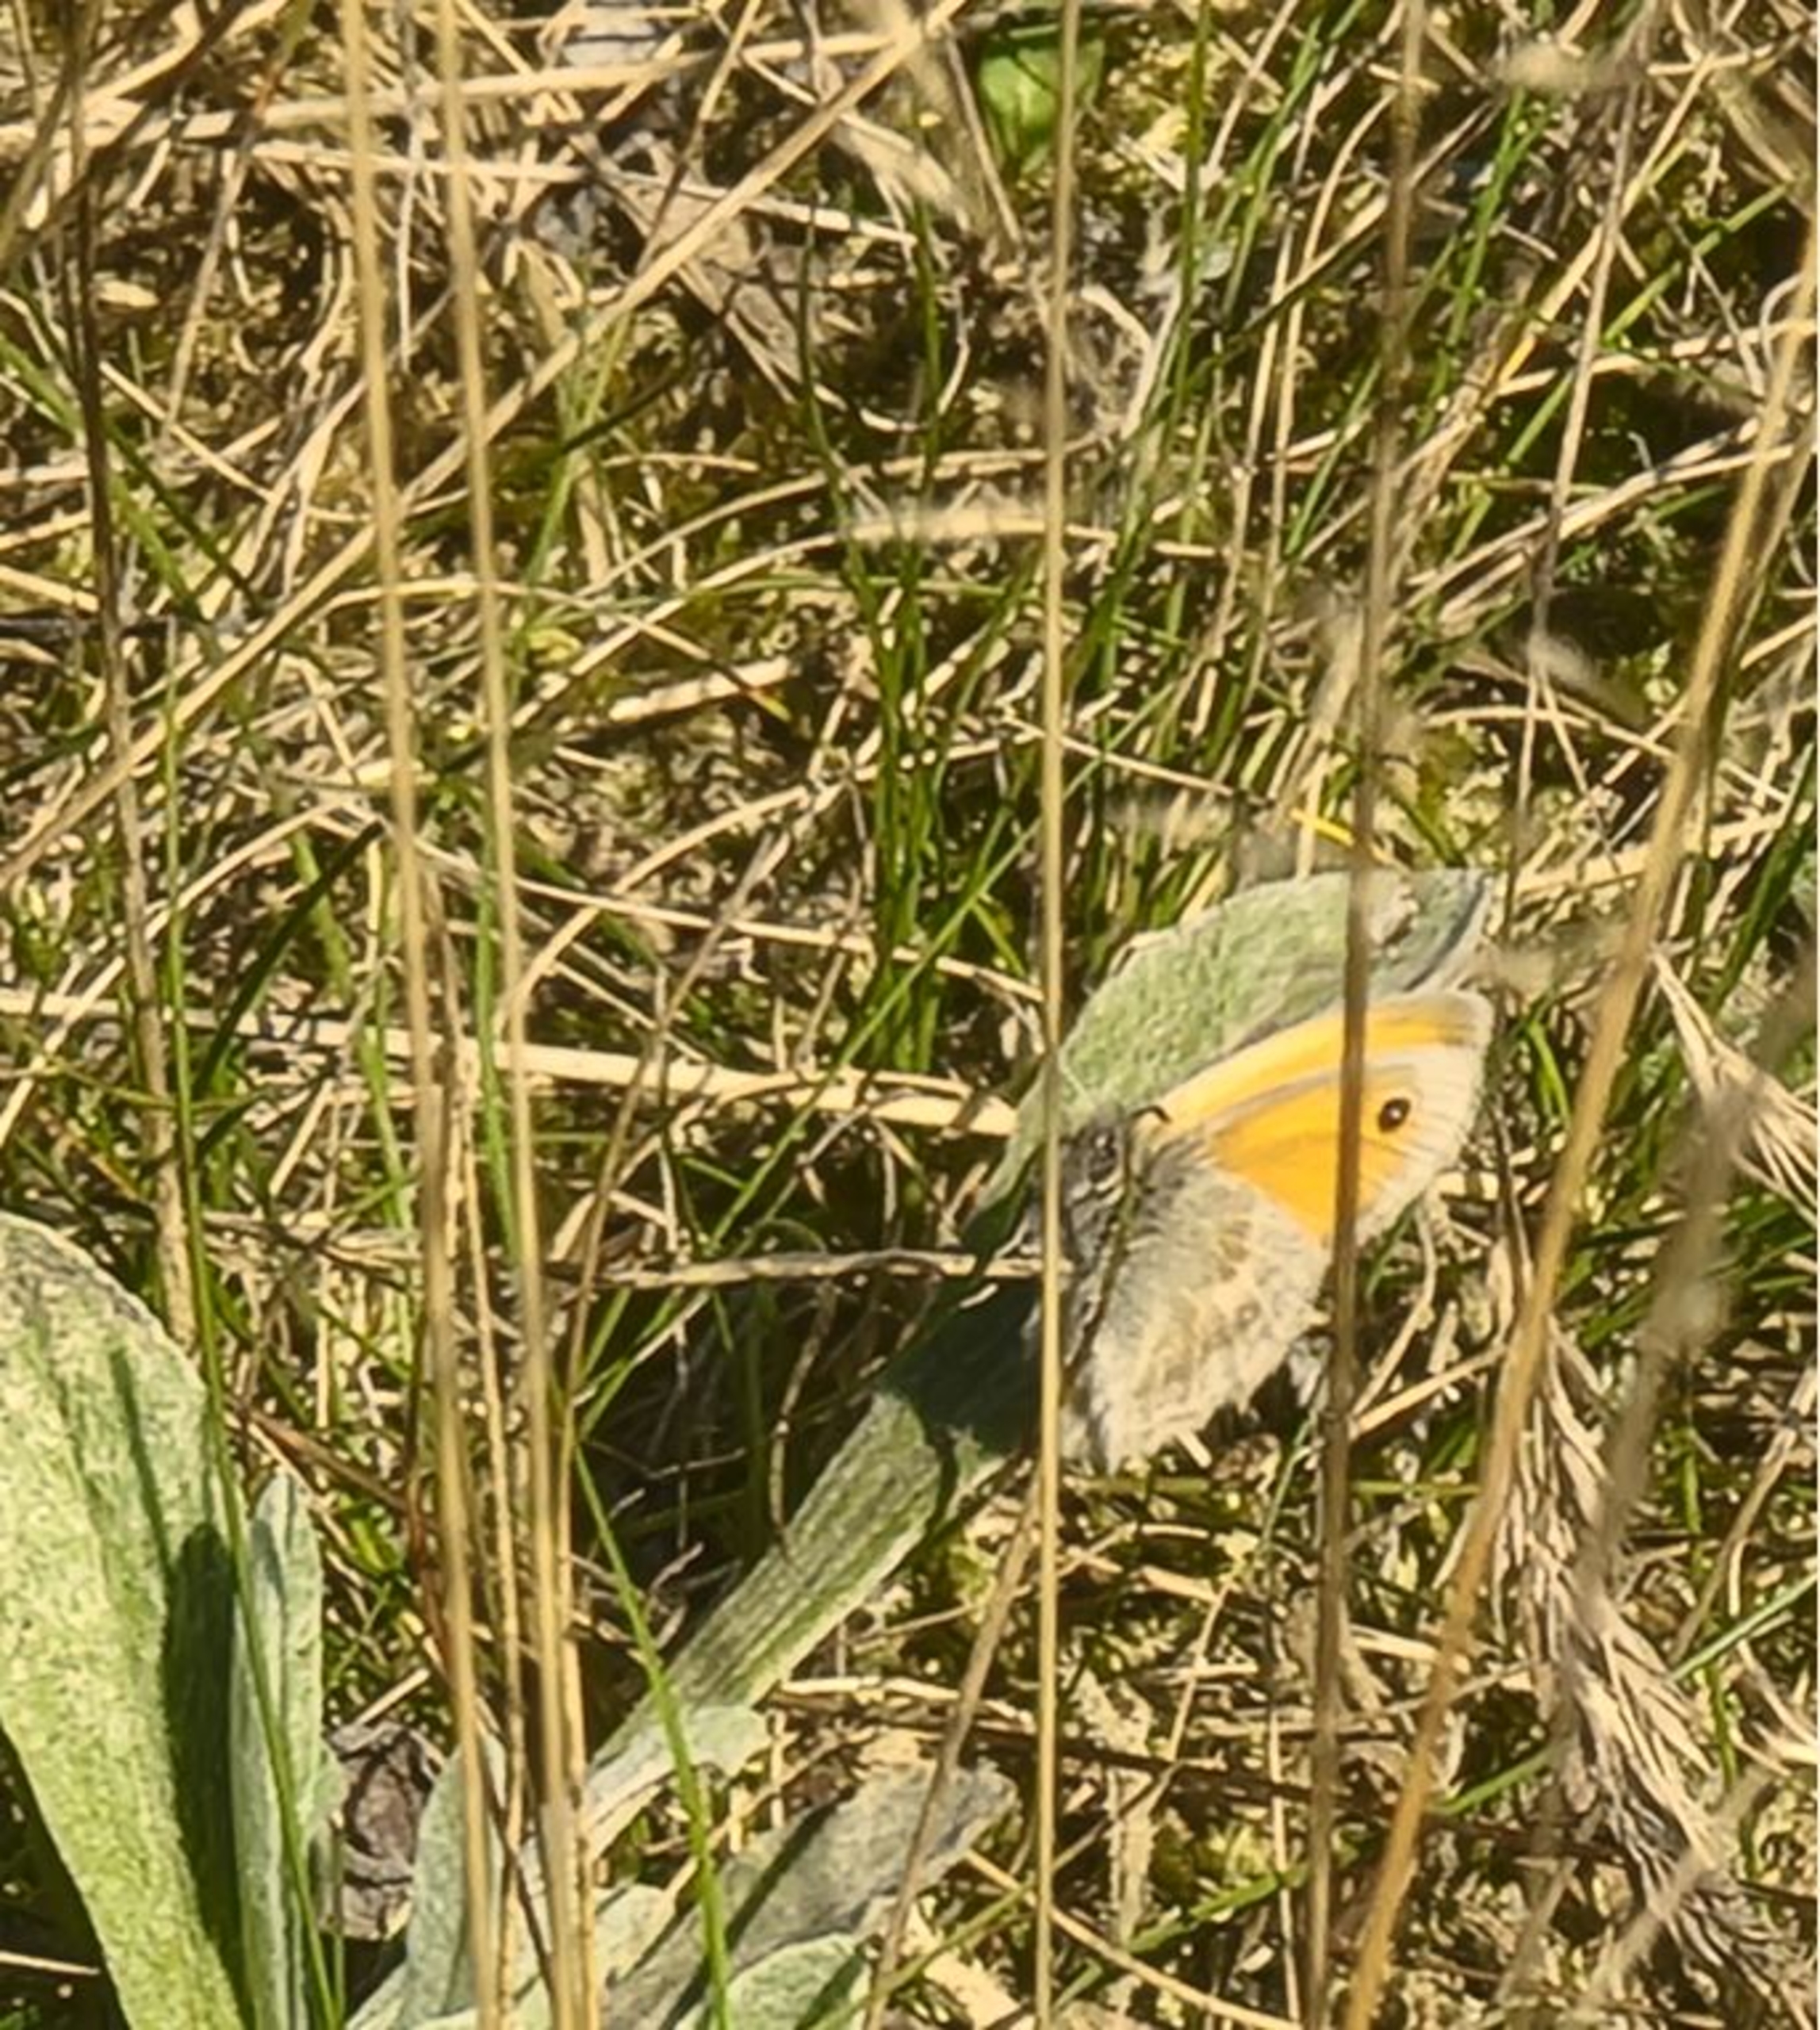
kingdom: Animalia
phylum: Arthropoda
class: Insecta
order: Lepidoptera
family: Nymphalidae
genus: Coenonympha
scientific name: Coenonympha pamphilus
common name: Okkergul randøje
